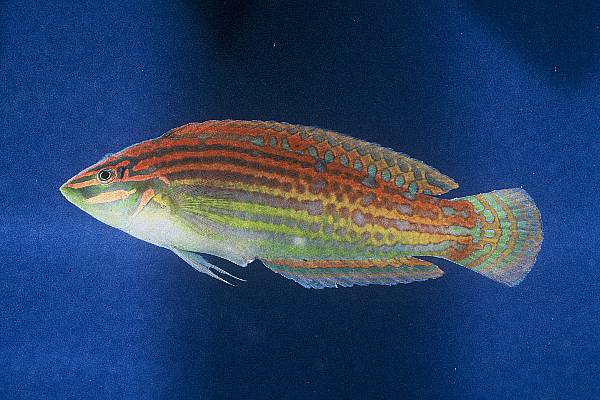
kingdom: Animalia
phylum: Chordata
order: Perciformes
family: Labridae
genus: Halichoeres
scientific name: Halichoeres cosmetus
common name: Adorned wrasse
